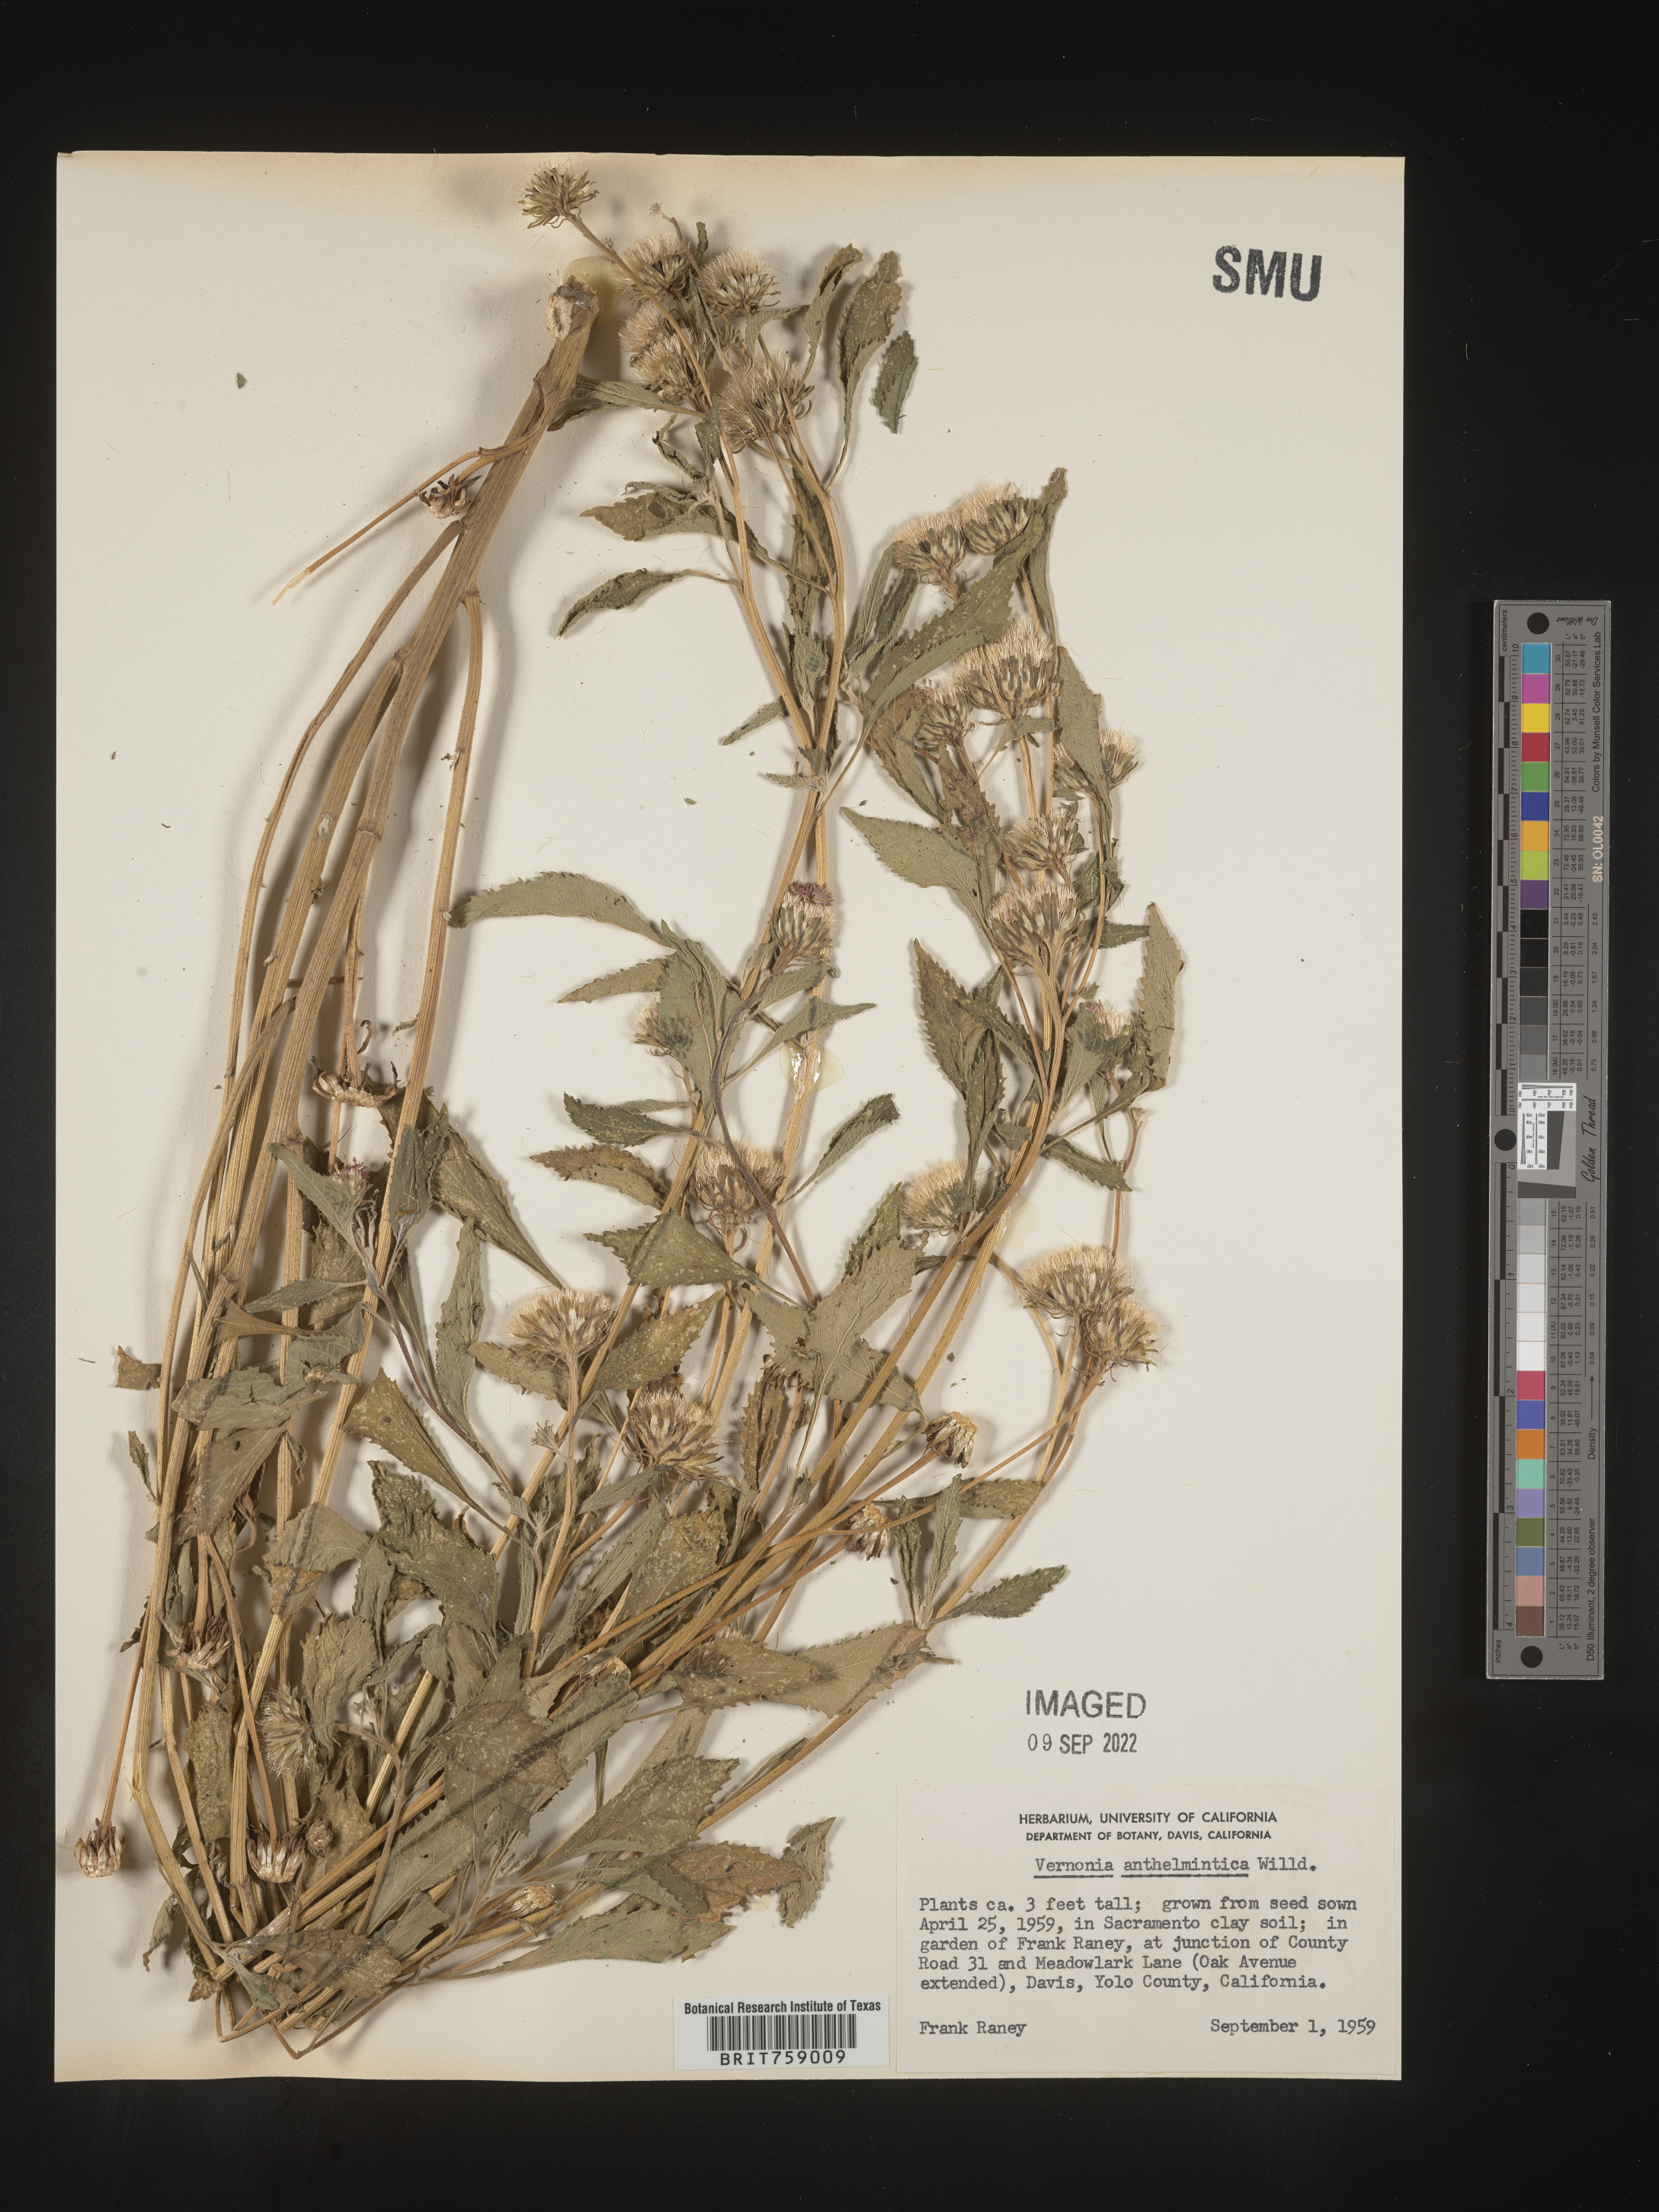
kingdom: Plantae
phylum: Tracheophyta
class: Magnoliopsida
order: Asterales
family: Asteraceae
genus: Vernonia
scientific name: Vernonia
